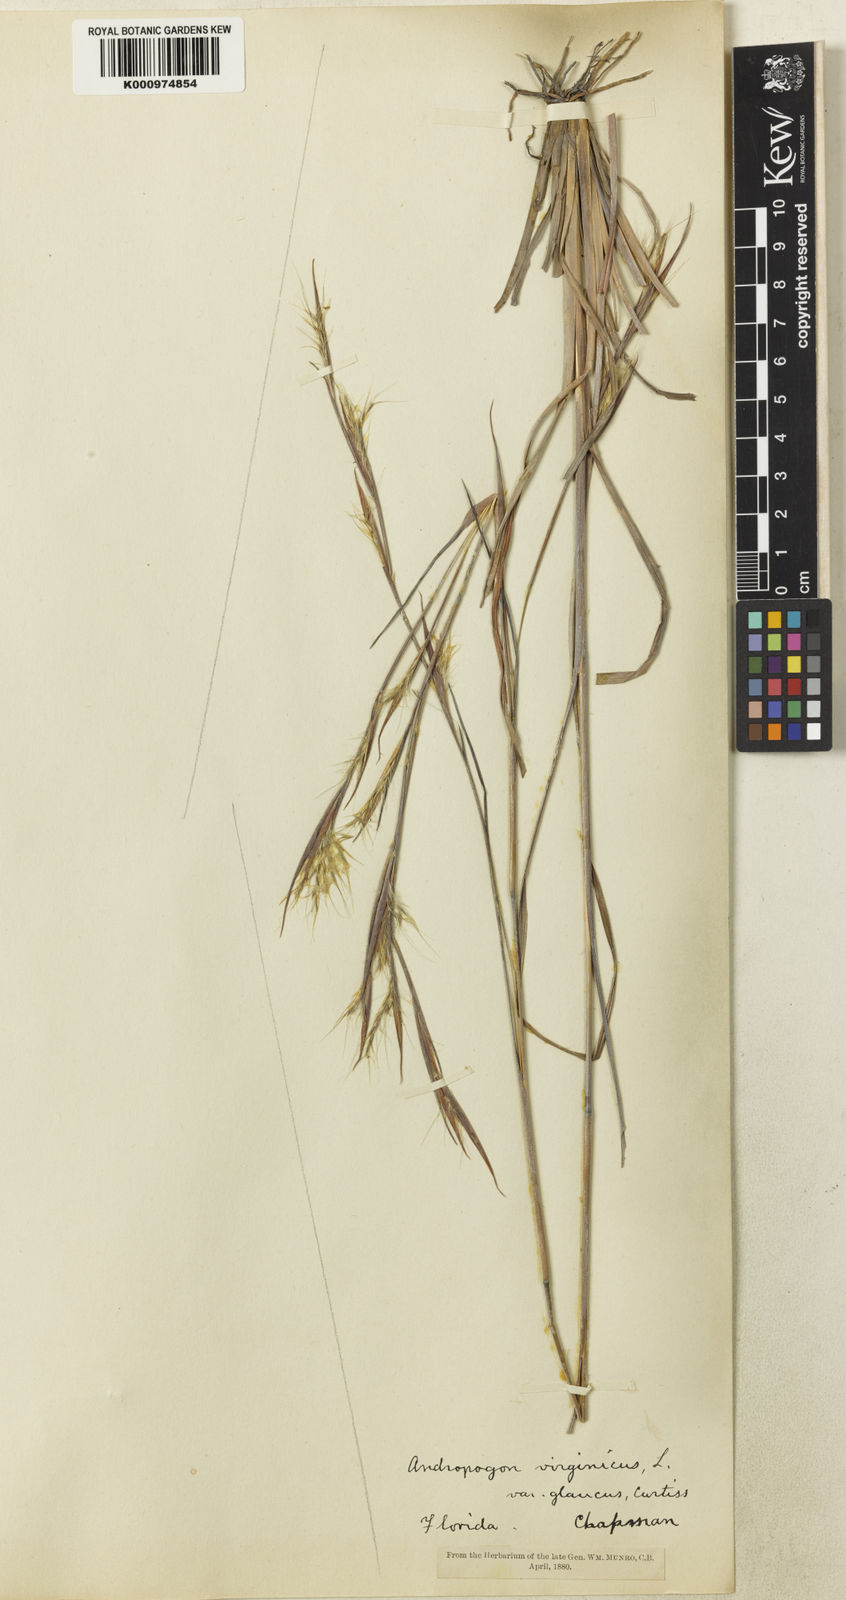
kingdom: Plantae
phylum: Tracheophyta
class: Liliopsida
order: Poales
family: Poaceae
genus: Andropogon
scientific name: Andropogon capillipes
